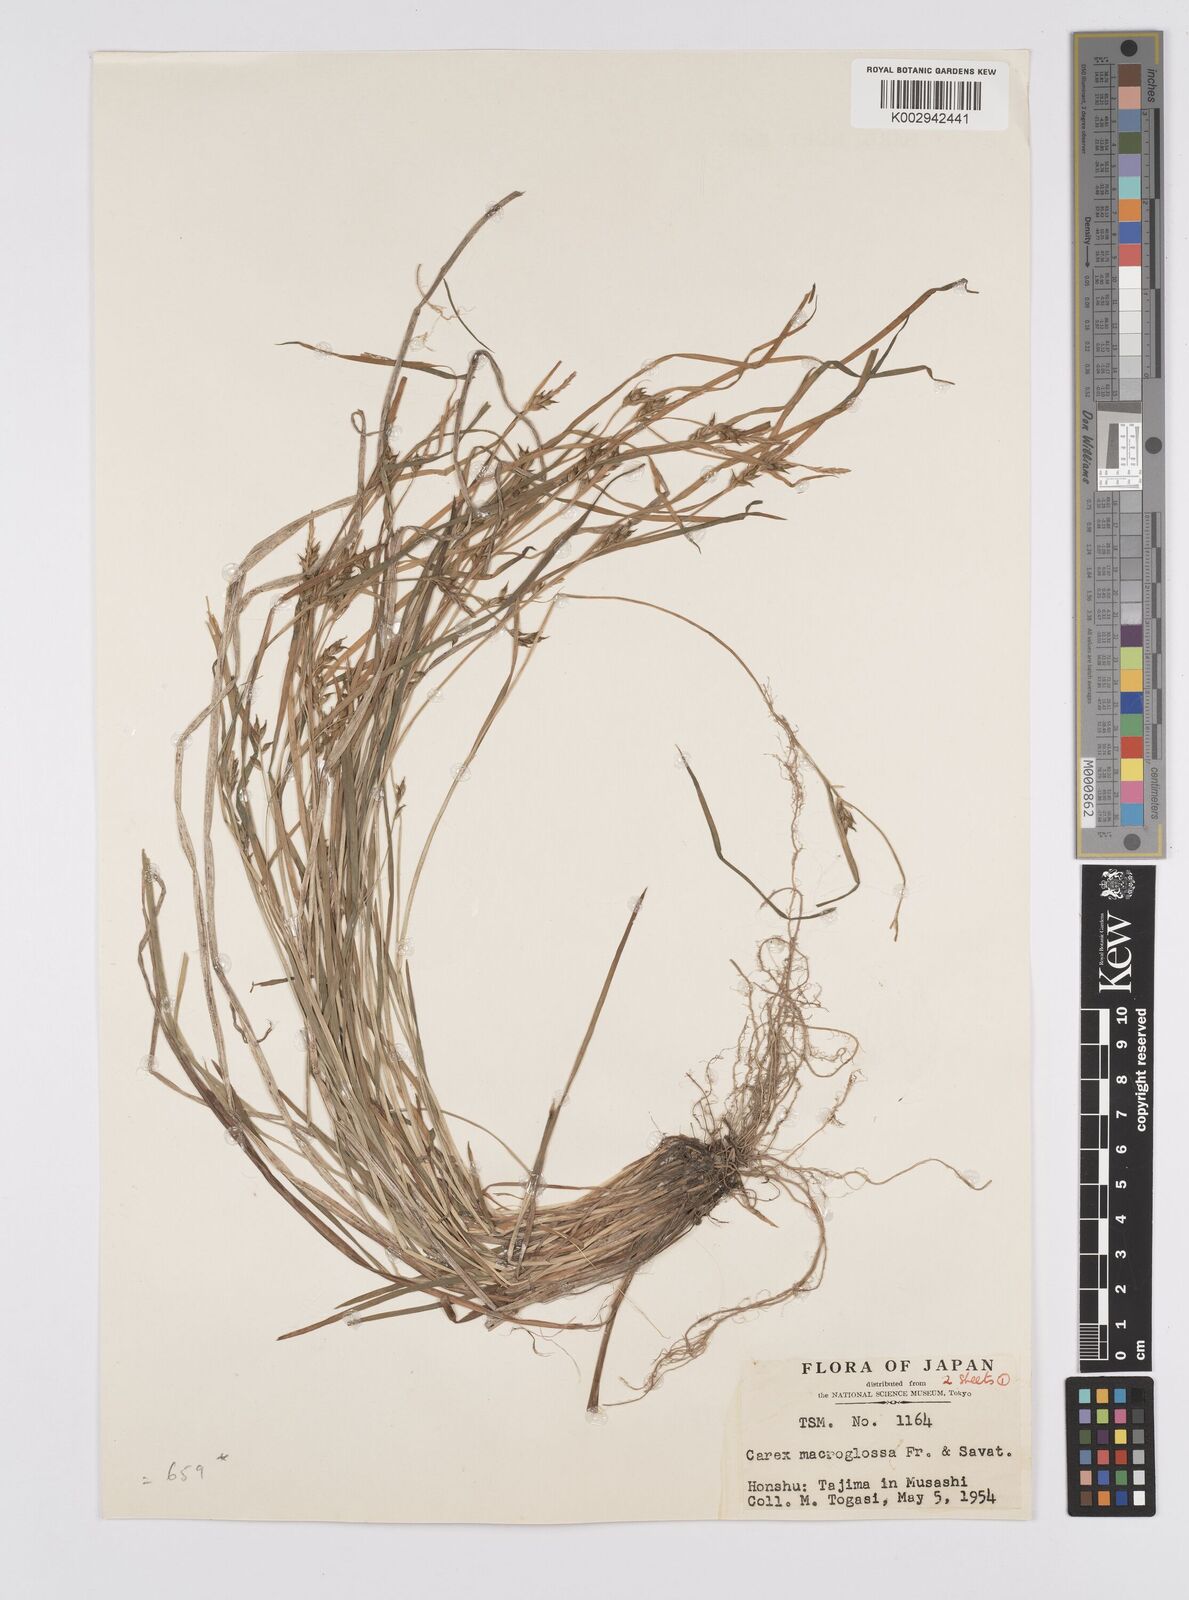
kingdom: Plantae
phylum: Tracheophyta
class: Liliopsida
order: Poales
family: Cyperaceae
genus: Carex
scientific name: Carex jackiana
